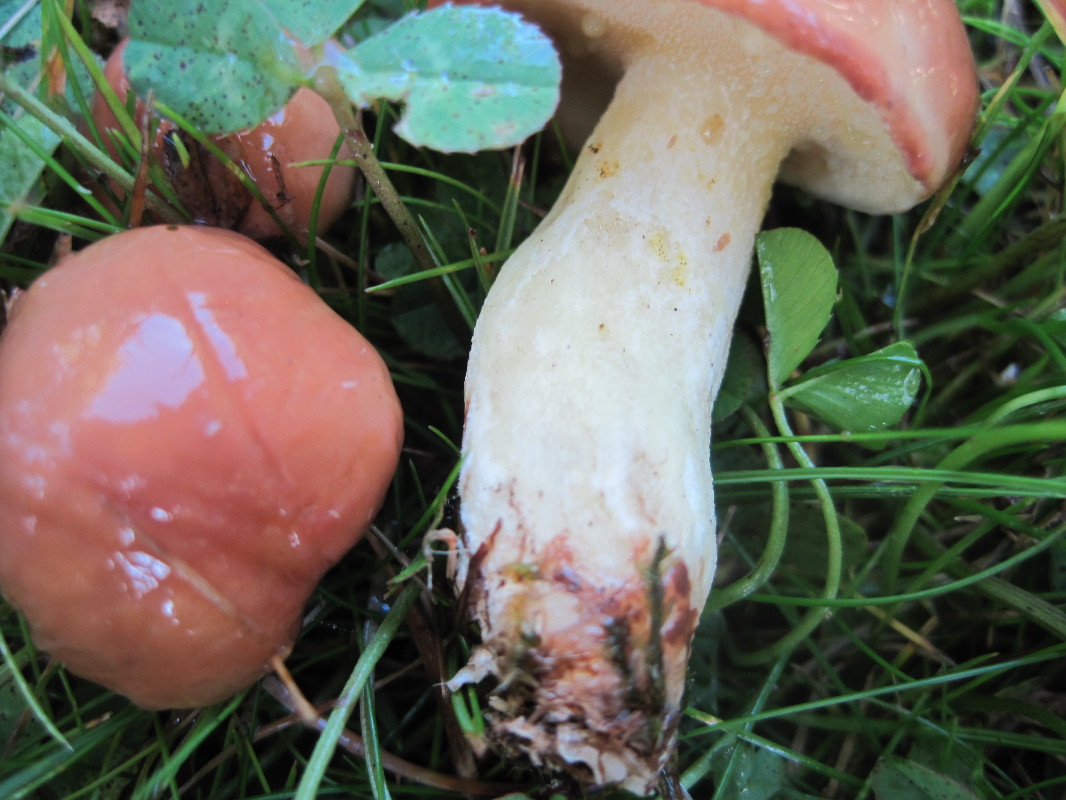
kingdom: Fungi
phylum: Basidiomycota
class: Agaricomycetes
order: Boletales
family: Suillaceae
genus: Suillus
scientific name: Suillus granulatus
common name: kornet slimrørhat
